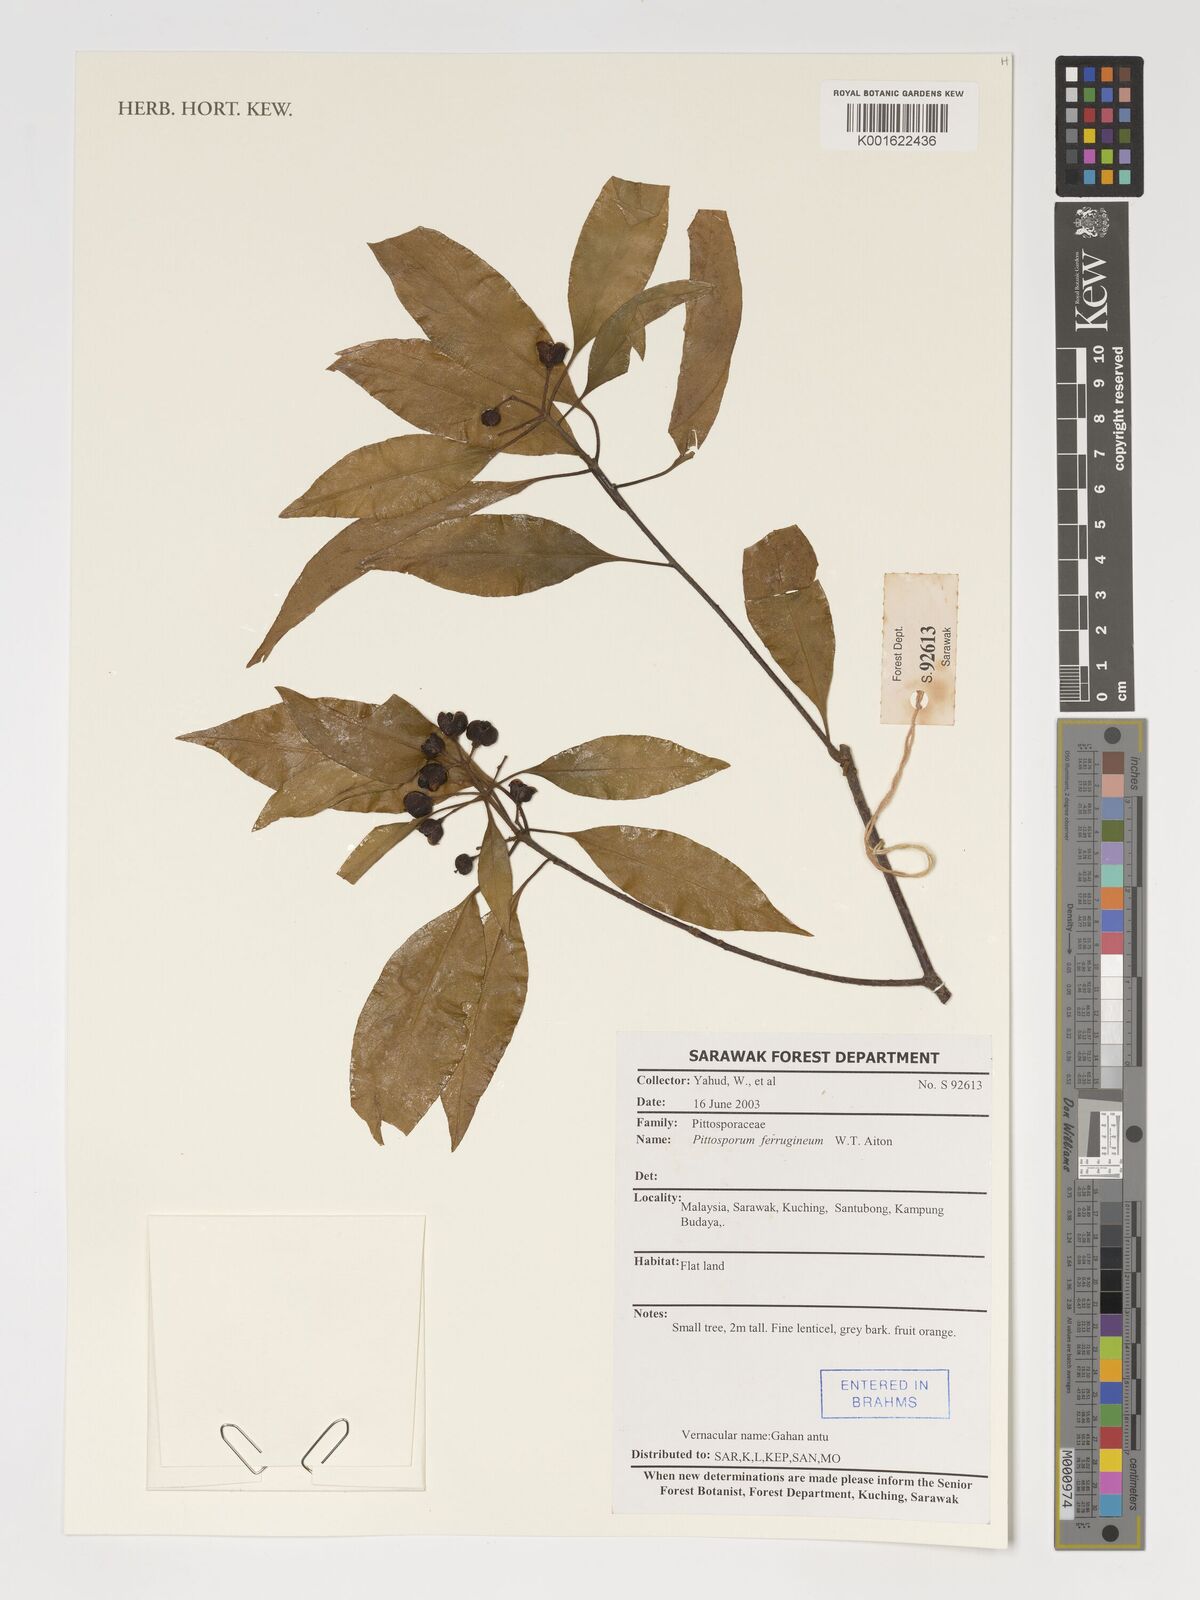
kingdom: Plantae
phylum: Tracheophyta
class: Magnoliopsida
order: Apiales
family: Pittosporaceae
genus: Pittosporum
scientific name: Pittosporum ferrugineum
